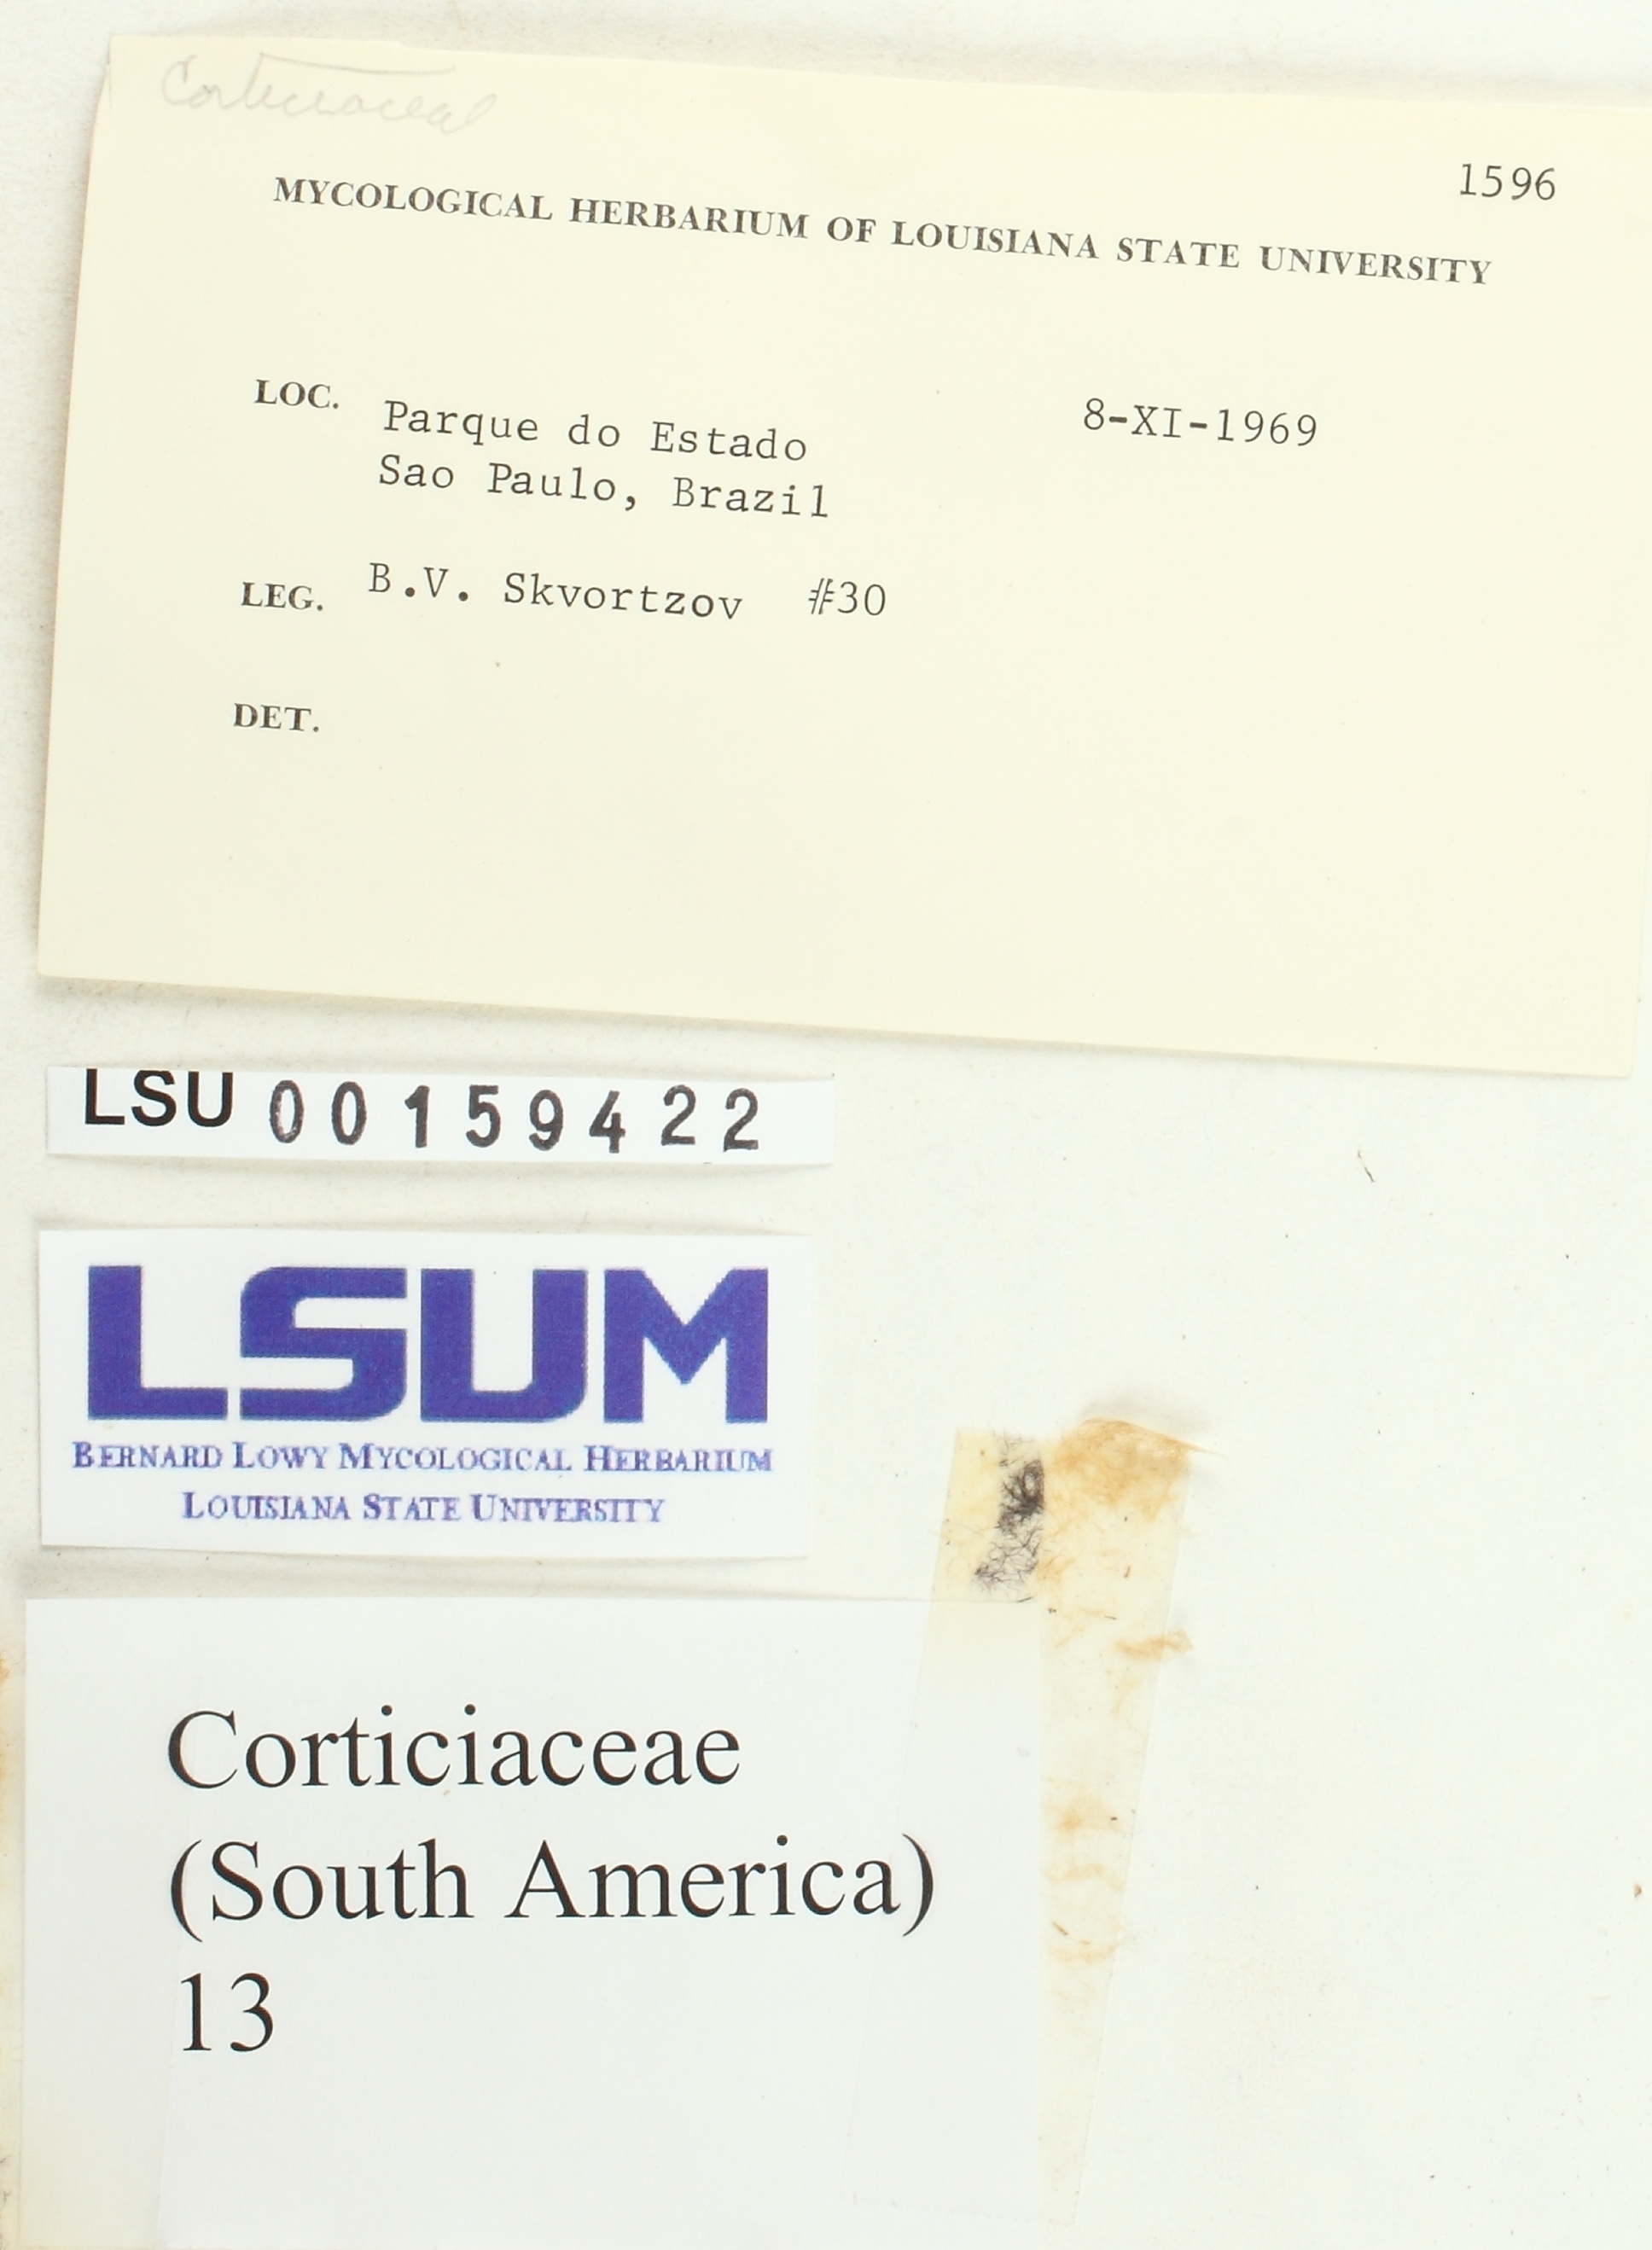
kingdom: Fungi
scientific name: Fungi
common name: Fungi
